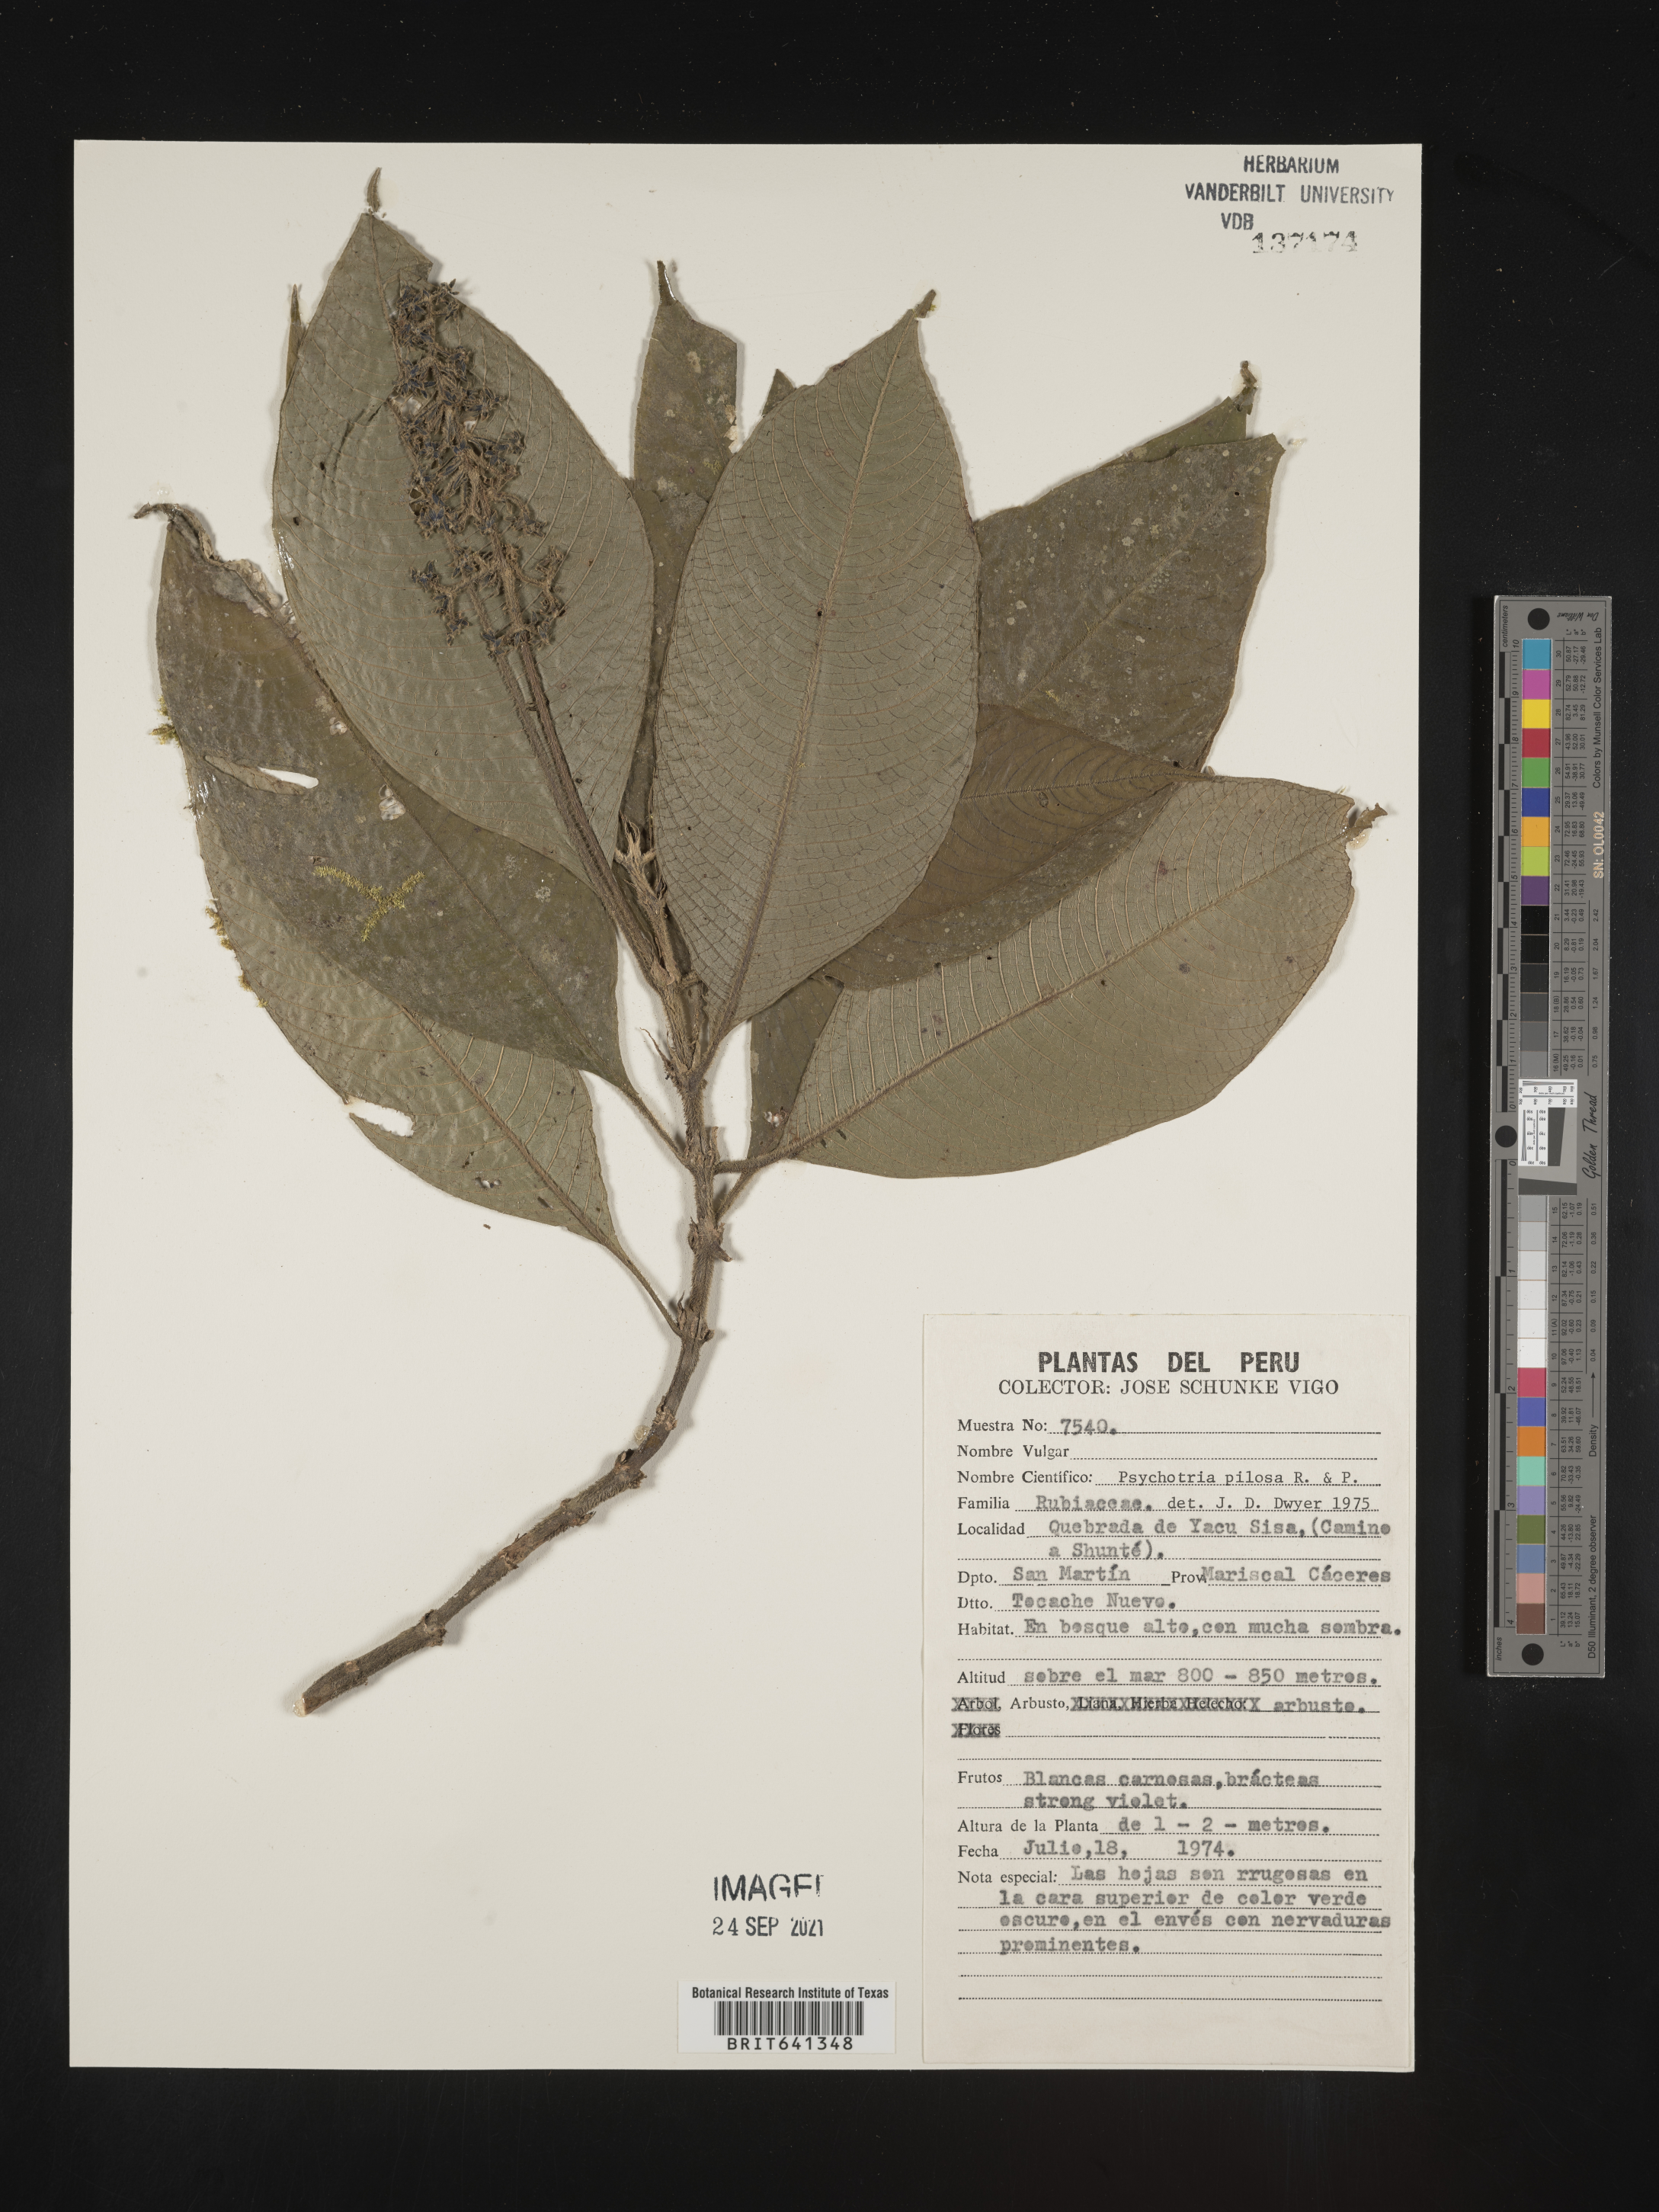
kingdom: Plantae
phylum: Tracheophyta
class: Magnoliopsida
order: Gentianales
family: Rubiaceae
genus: Psychotria
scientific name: Psychotria
